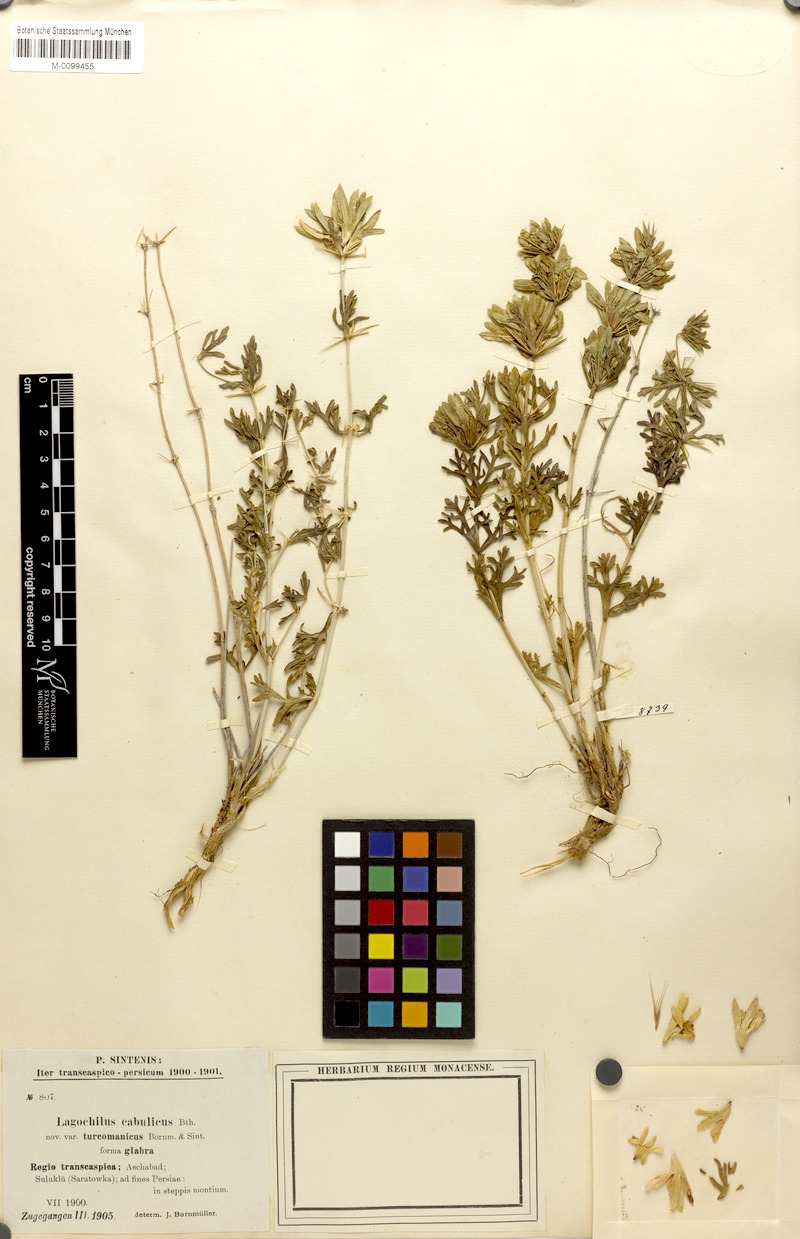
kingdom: Plantae
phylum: Tracheophyta
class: Magnoliopsida
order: Lamiales
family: Lamiaceae
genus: Lagochilus
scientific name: Lagochilus cabulicus
